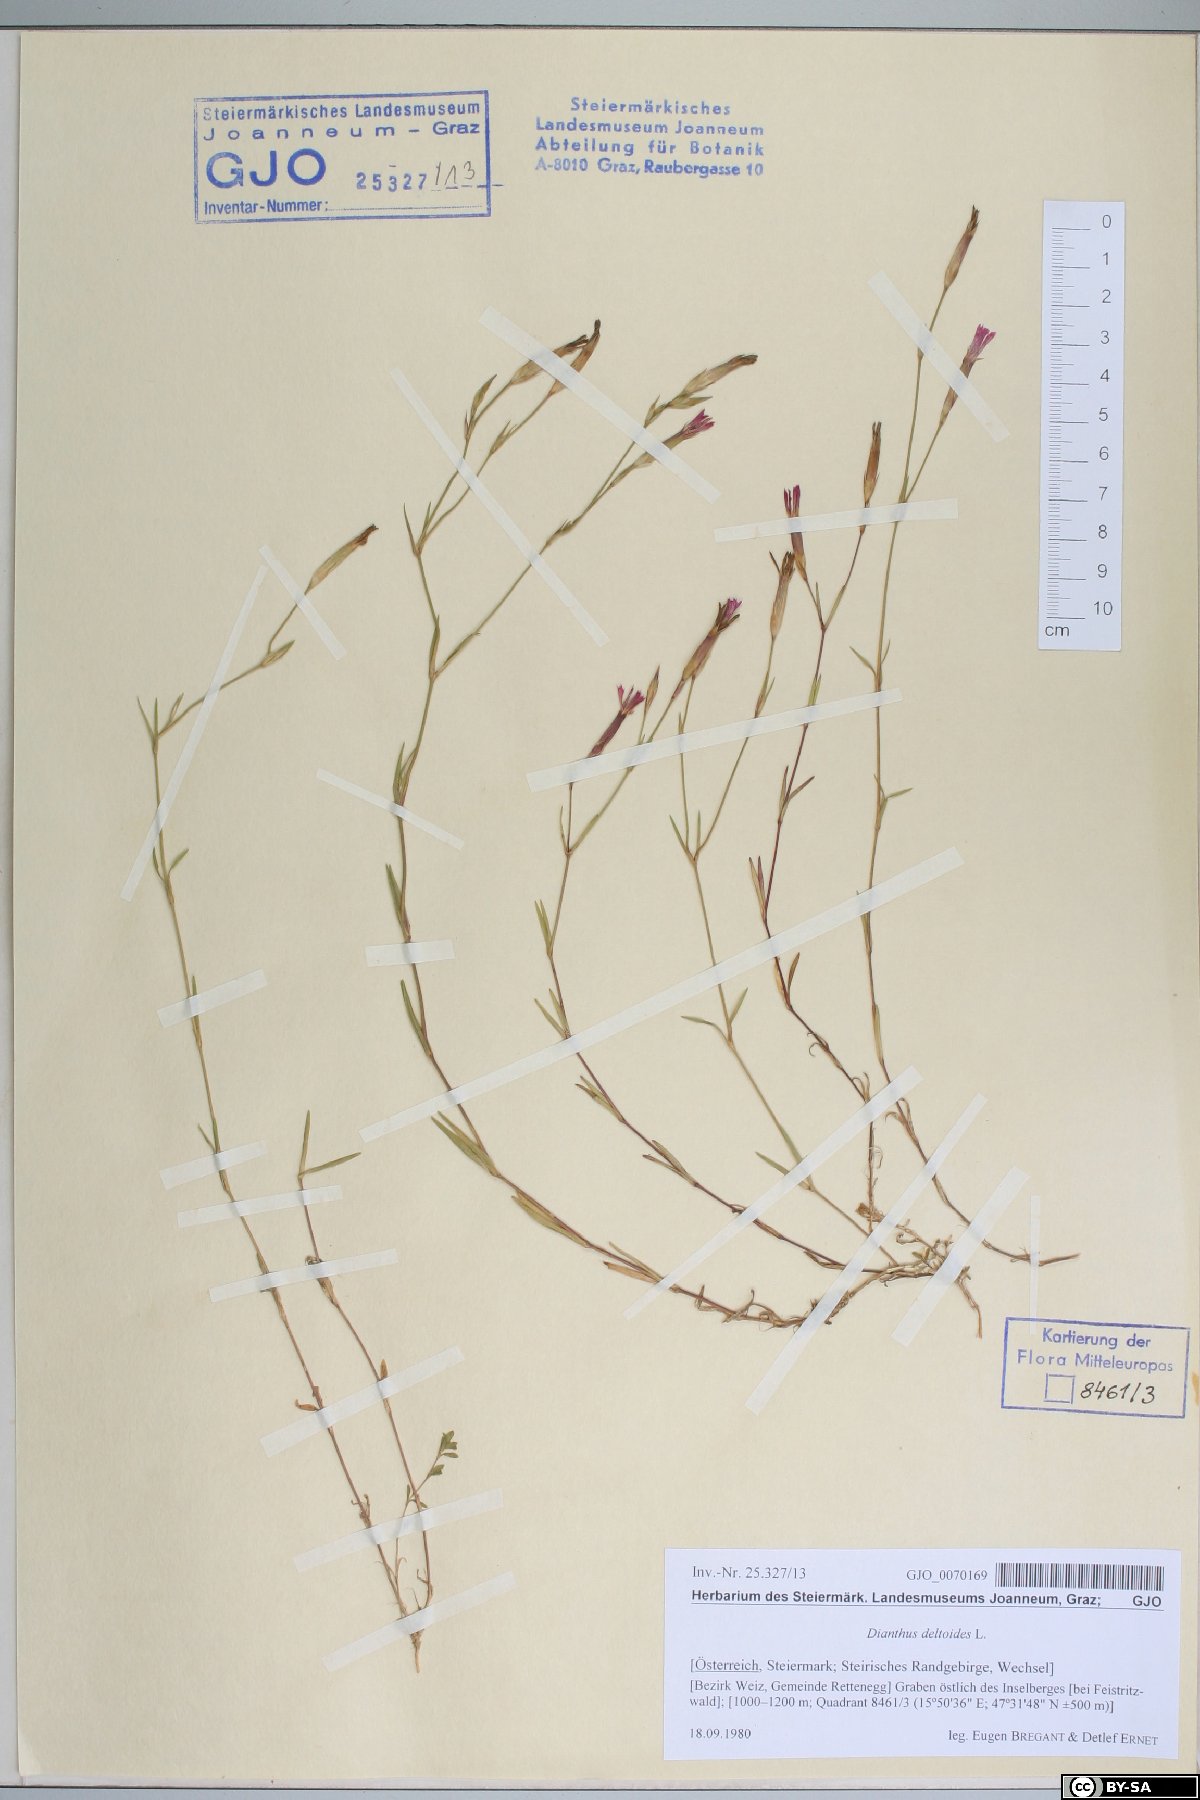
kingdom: Plantae
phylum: Tracheophyta
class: Magnoliopsida
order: Caryophyllales
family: Caryophyllaceae
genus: Dianthus
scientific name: Dianthus deltoides
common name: Maiden pink
